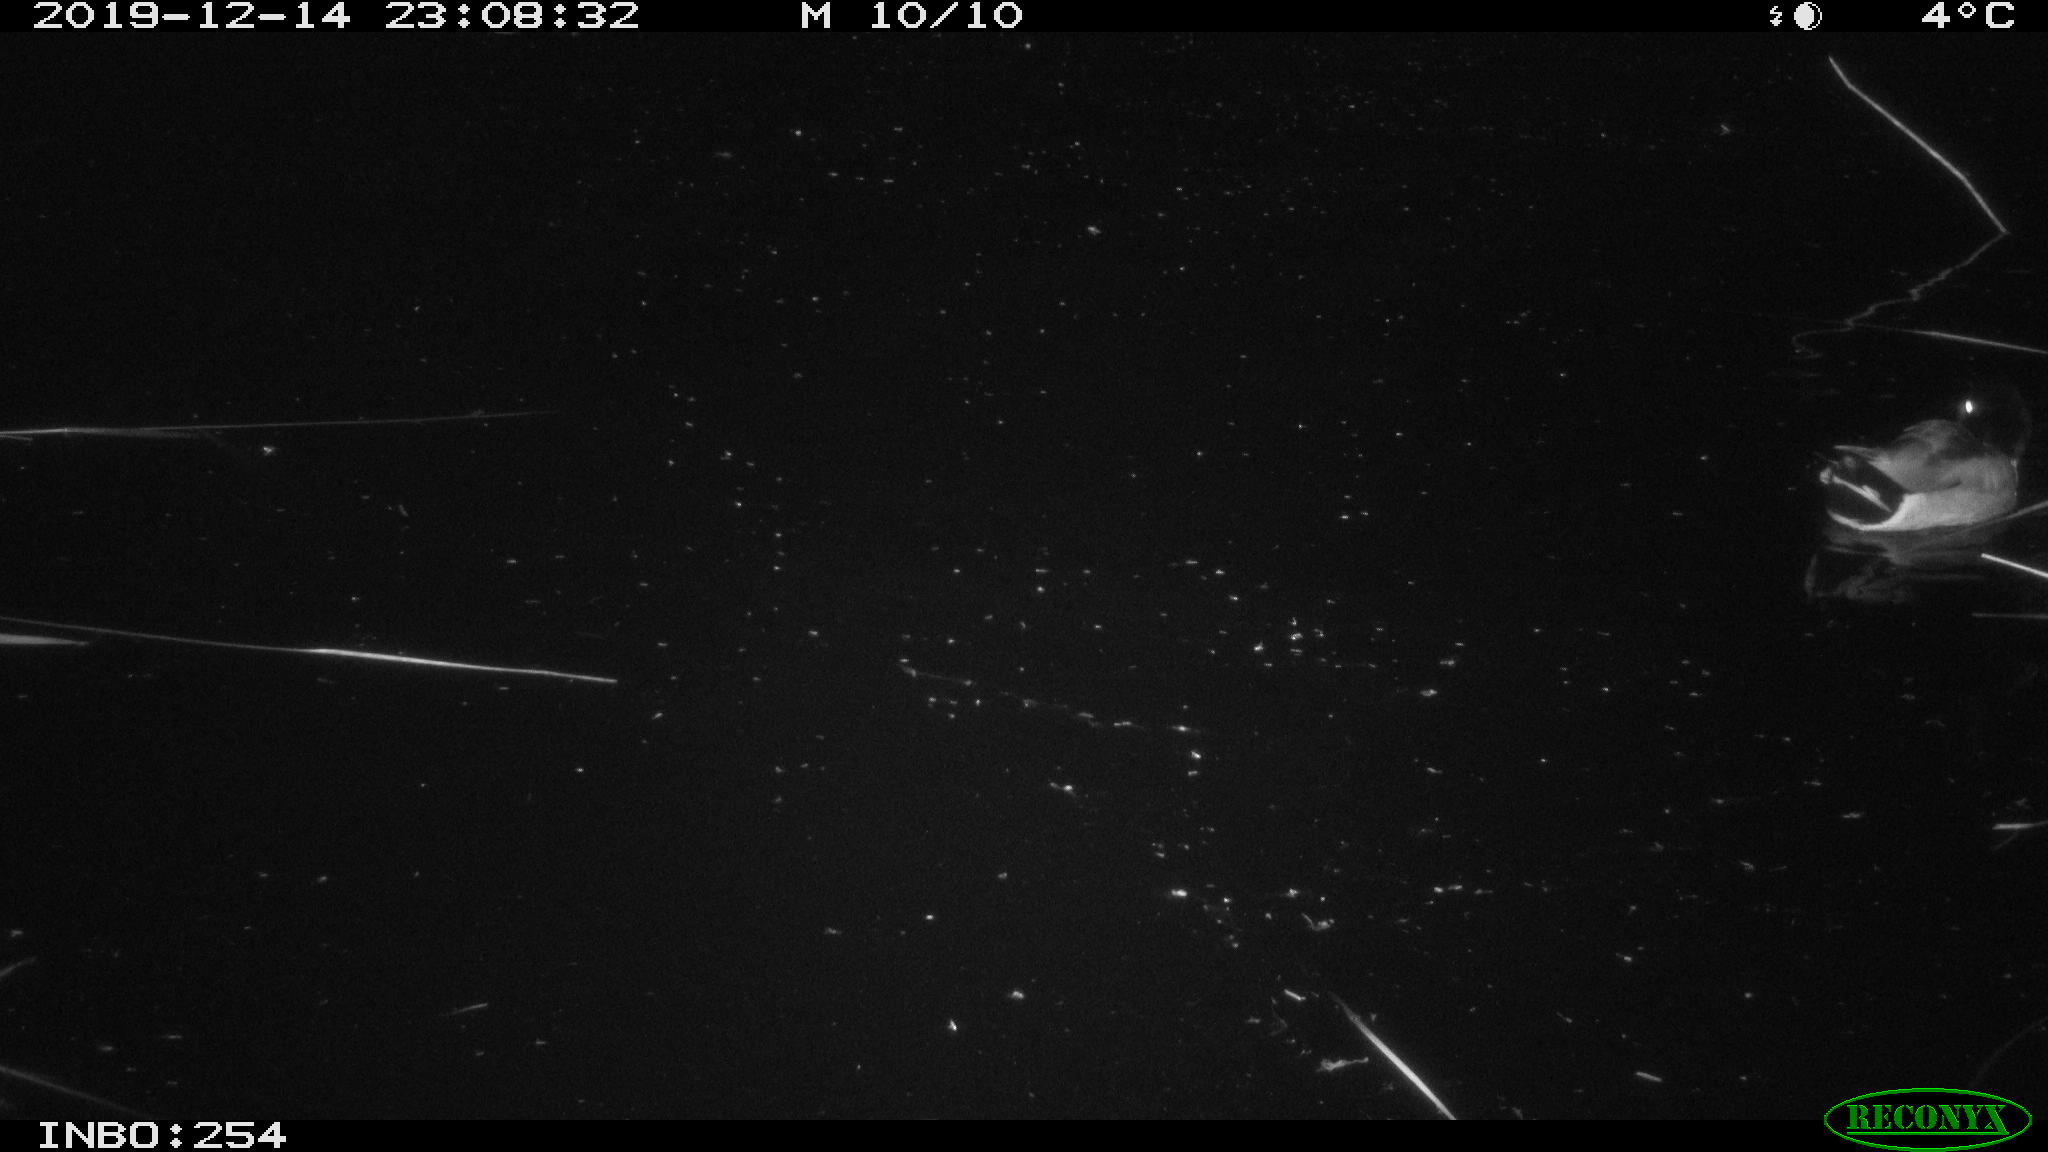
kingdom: Animalia
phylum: Chordata
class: Aves
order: Anseriformes
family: Anatidae
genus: Anas
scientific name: Anas platyrhynchos
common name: Mallard
